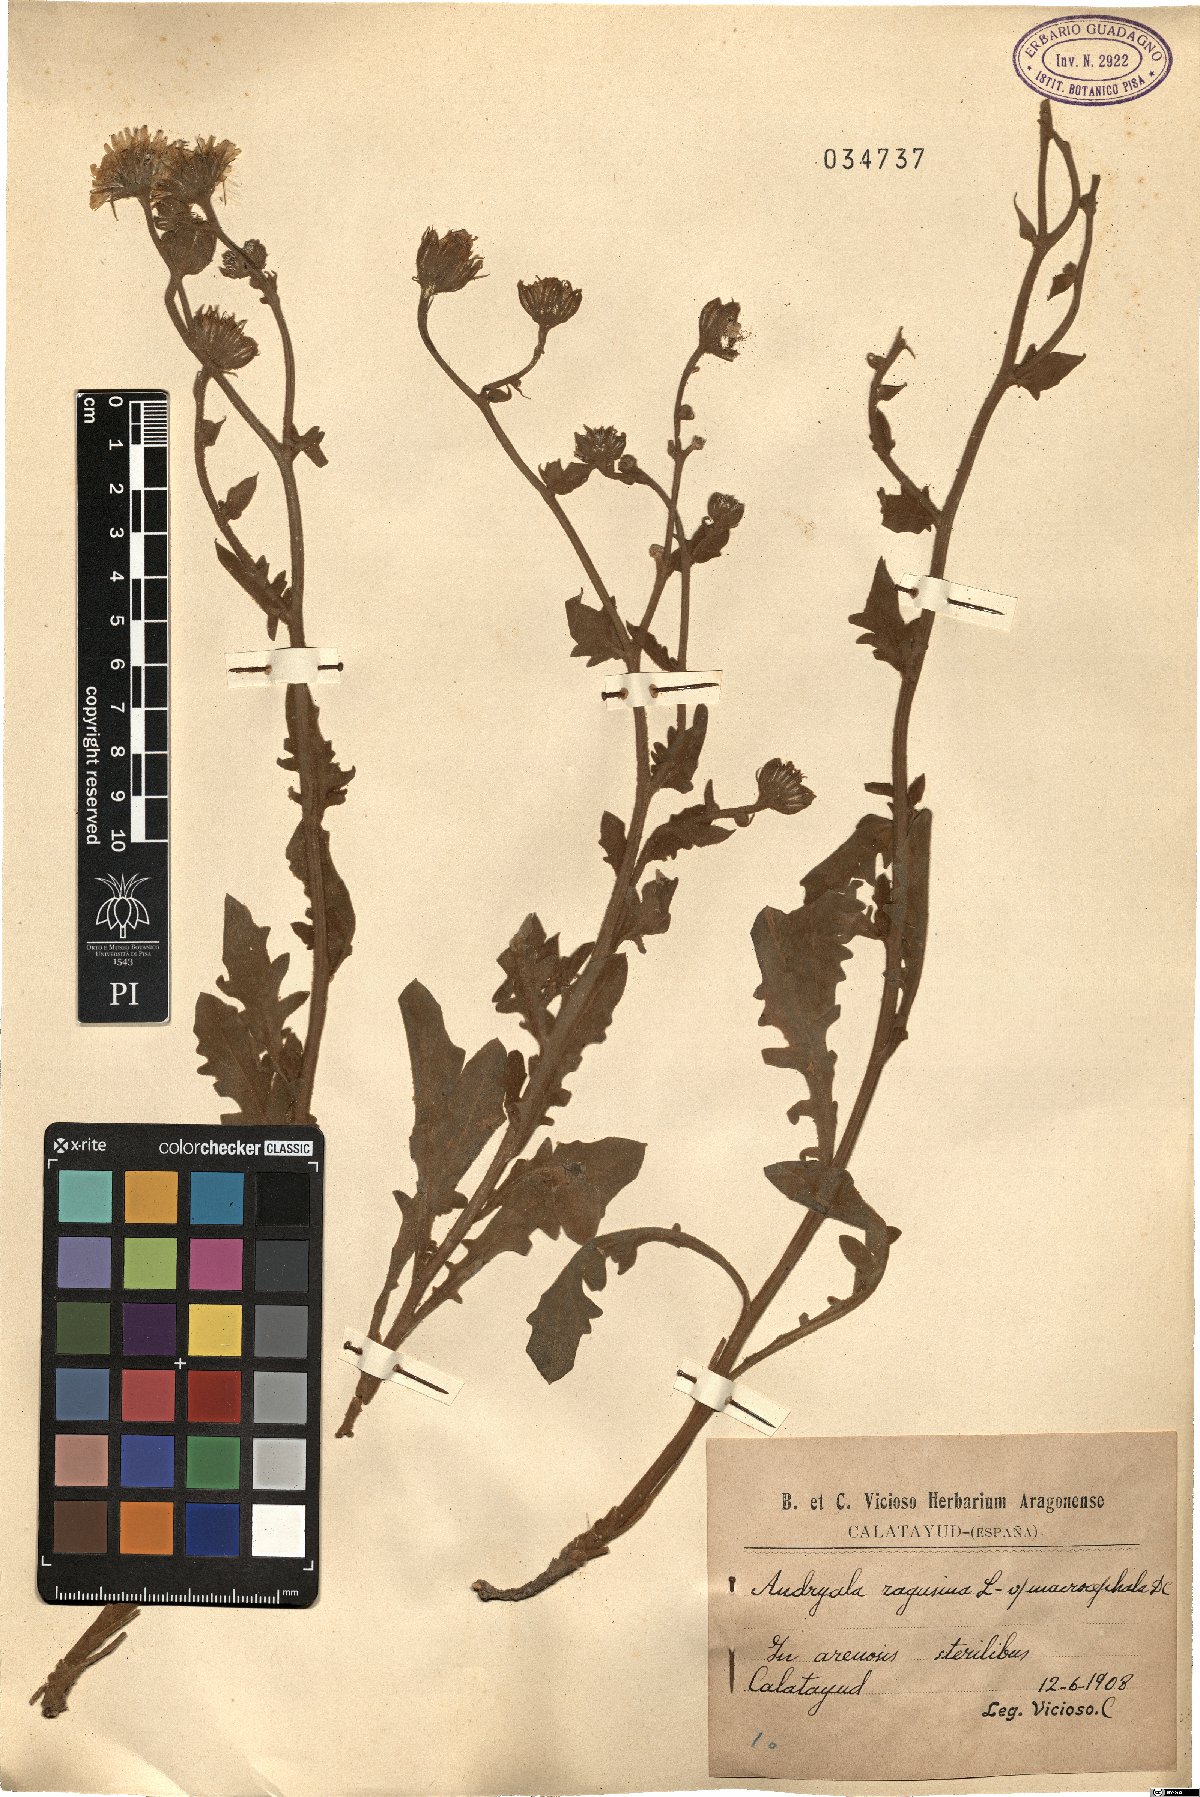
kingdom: Plantae
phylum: Tracheophyta
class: Magnoliopsida
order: Asterales
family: Asteraceae
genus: Andryala
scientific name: Andryala ragusina
